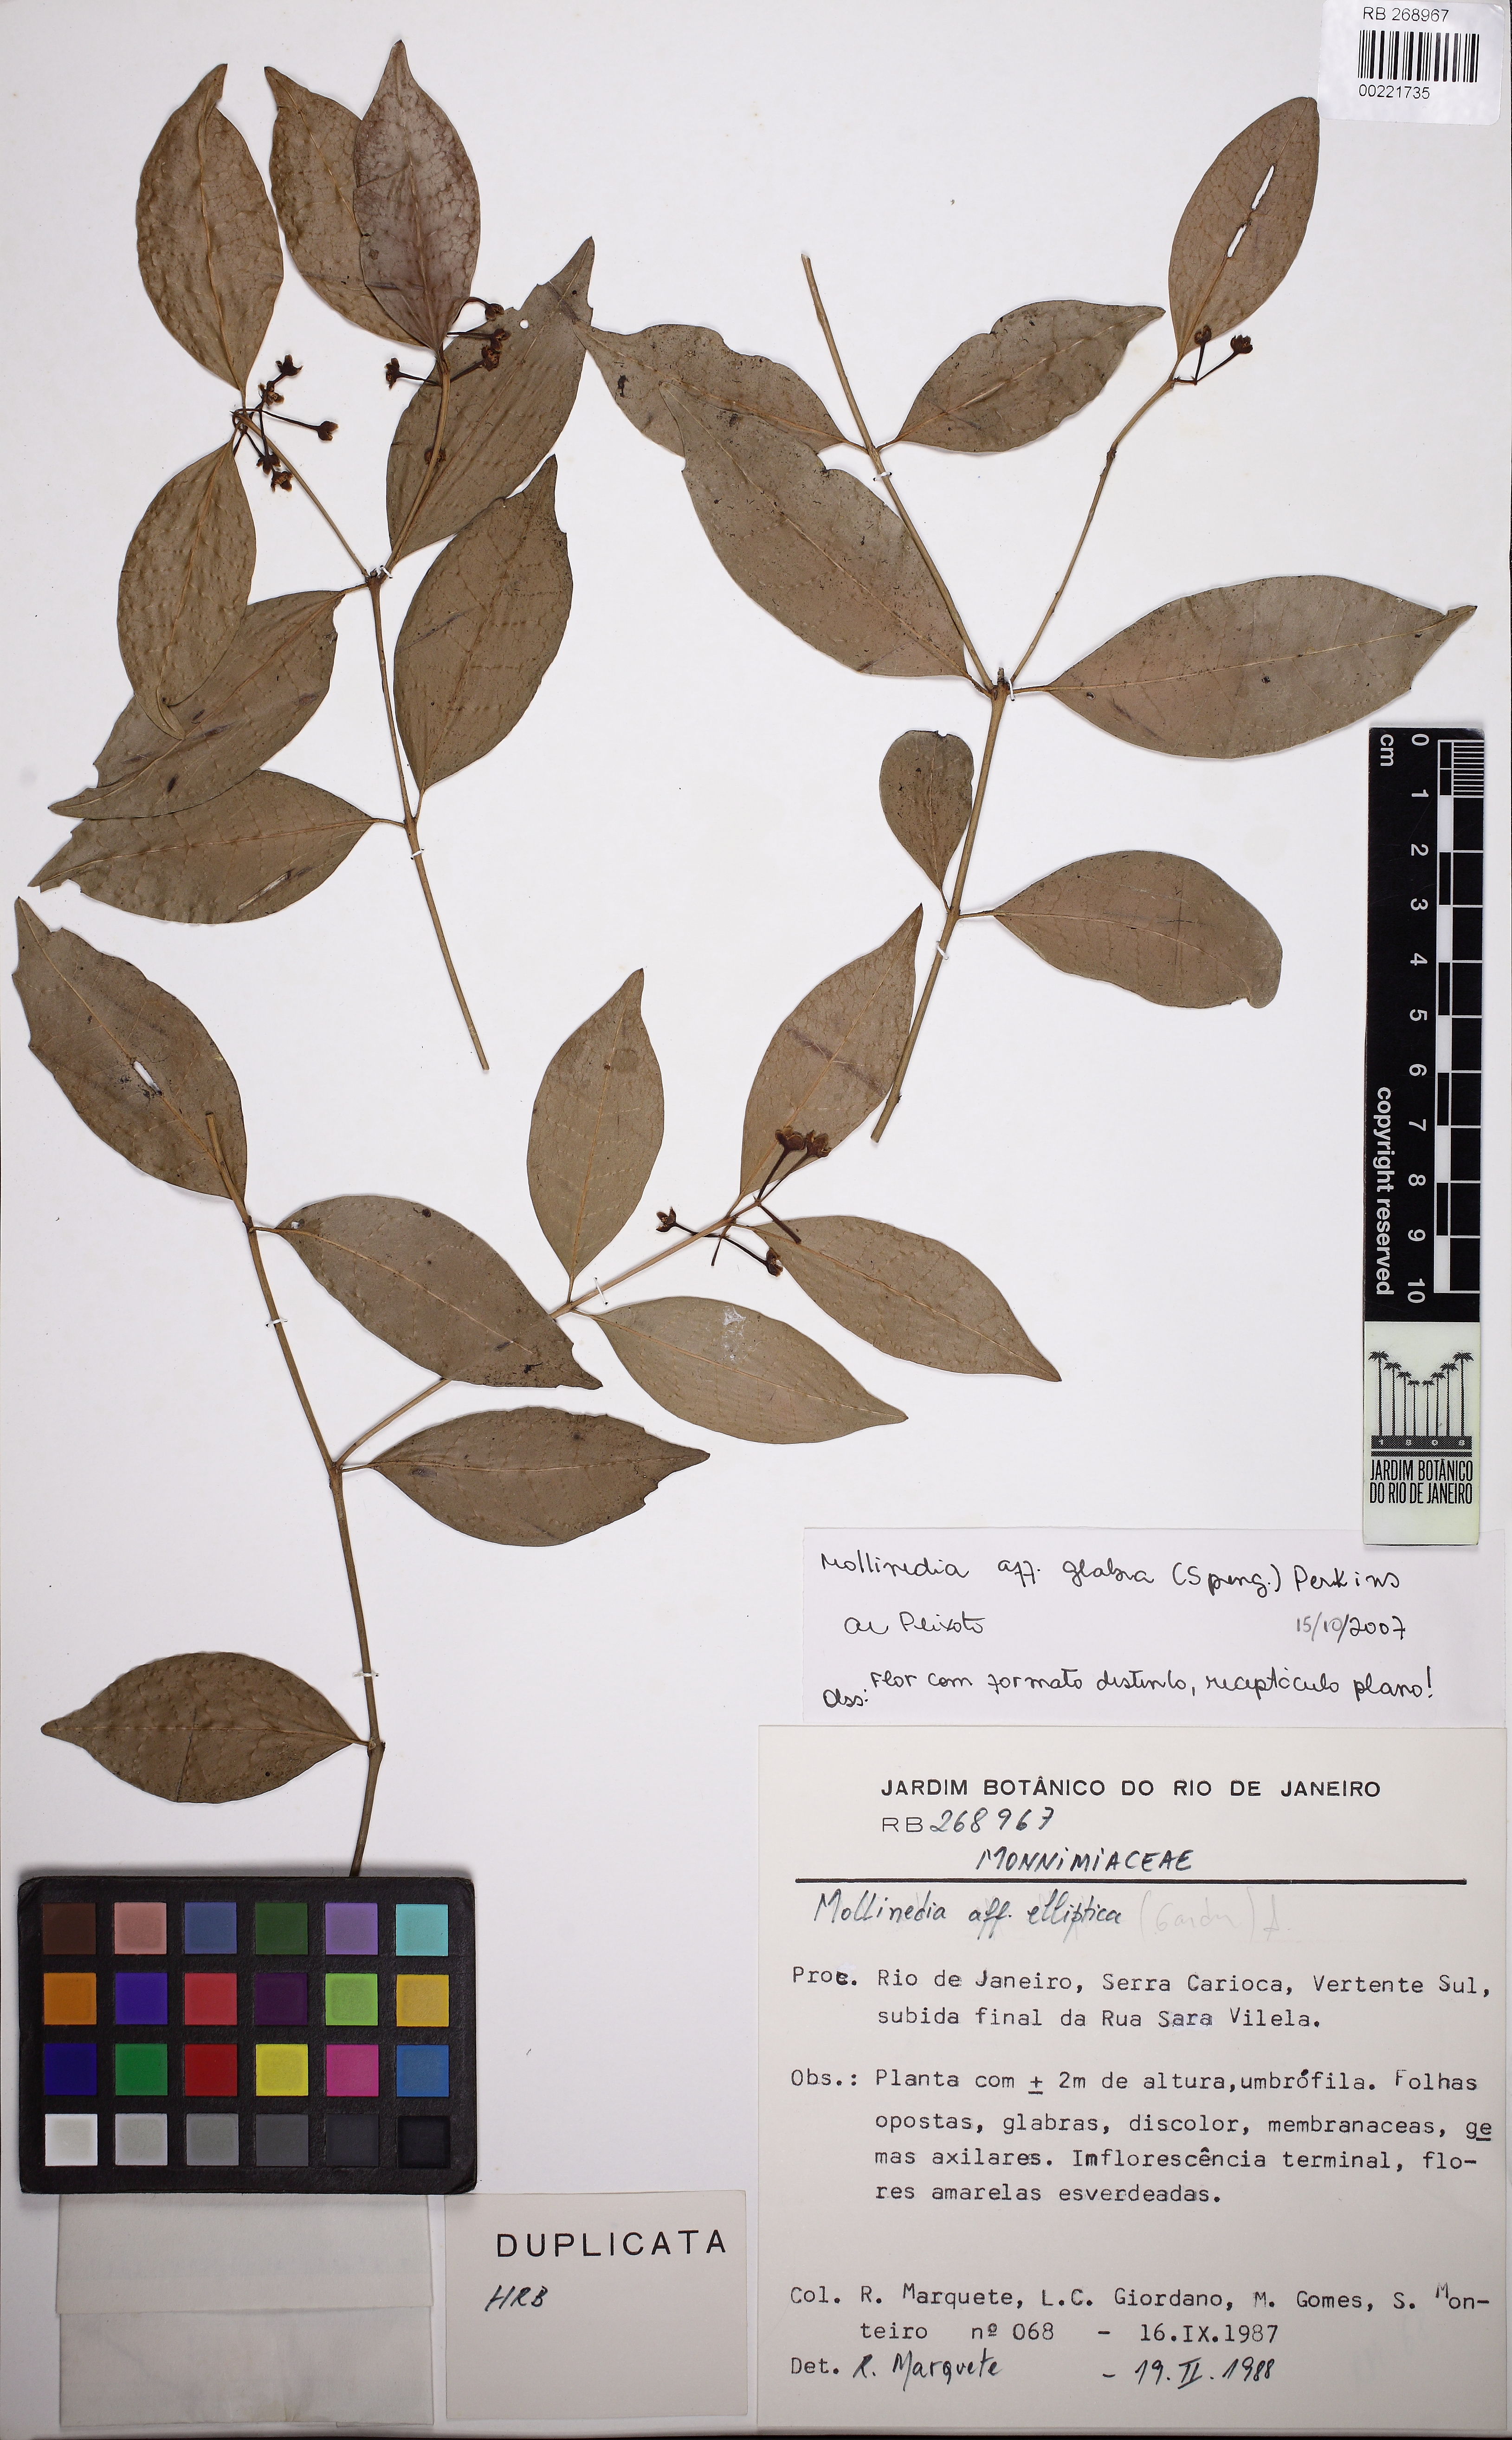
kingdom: Plantae
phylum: Tracheophyta
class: Magnoliopsida
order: Laurales
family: Monimiaceae
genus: Mollinedia
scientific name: Mollinedia glabra
